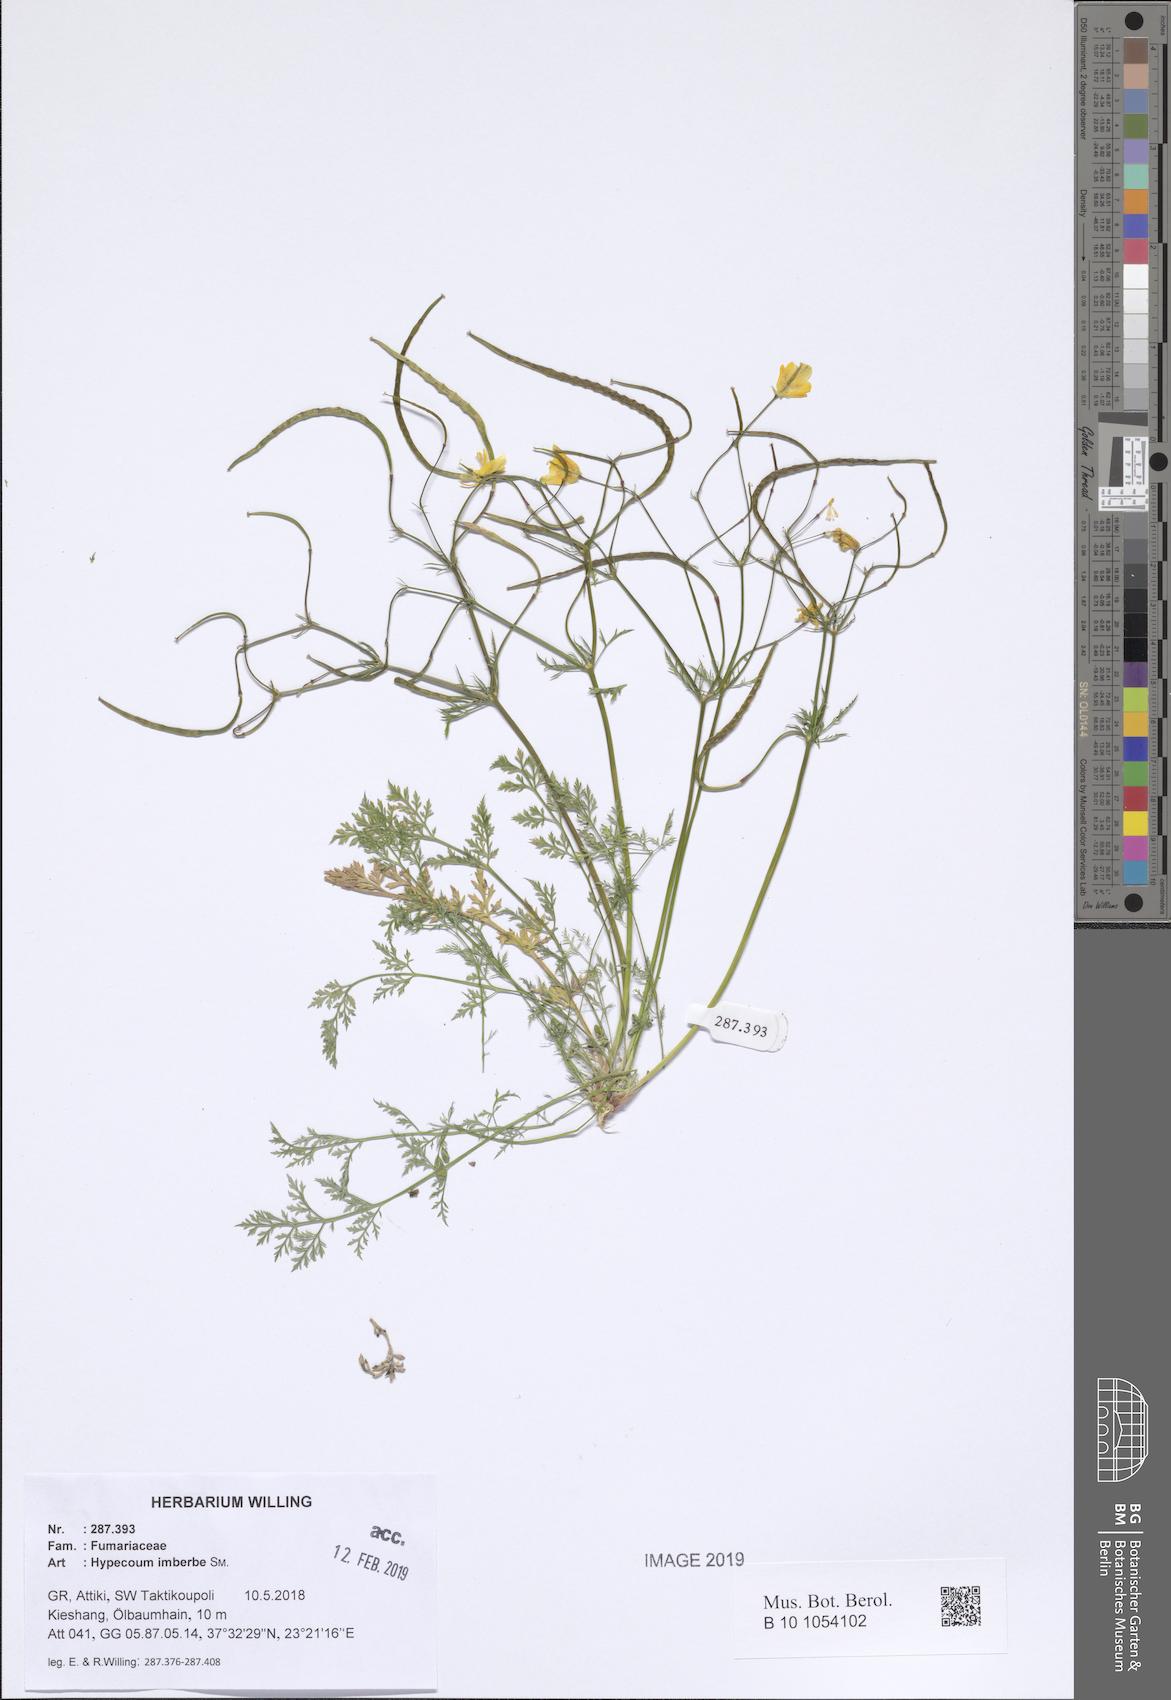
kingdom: Plantae
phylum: Tracheophyta
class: Magnoliopsida
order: Ranunculales
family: Papaveraceae
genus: Hypecoum
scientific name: Hypecoum imberbe
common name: Sicklefruit hypecoum
